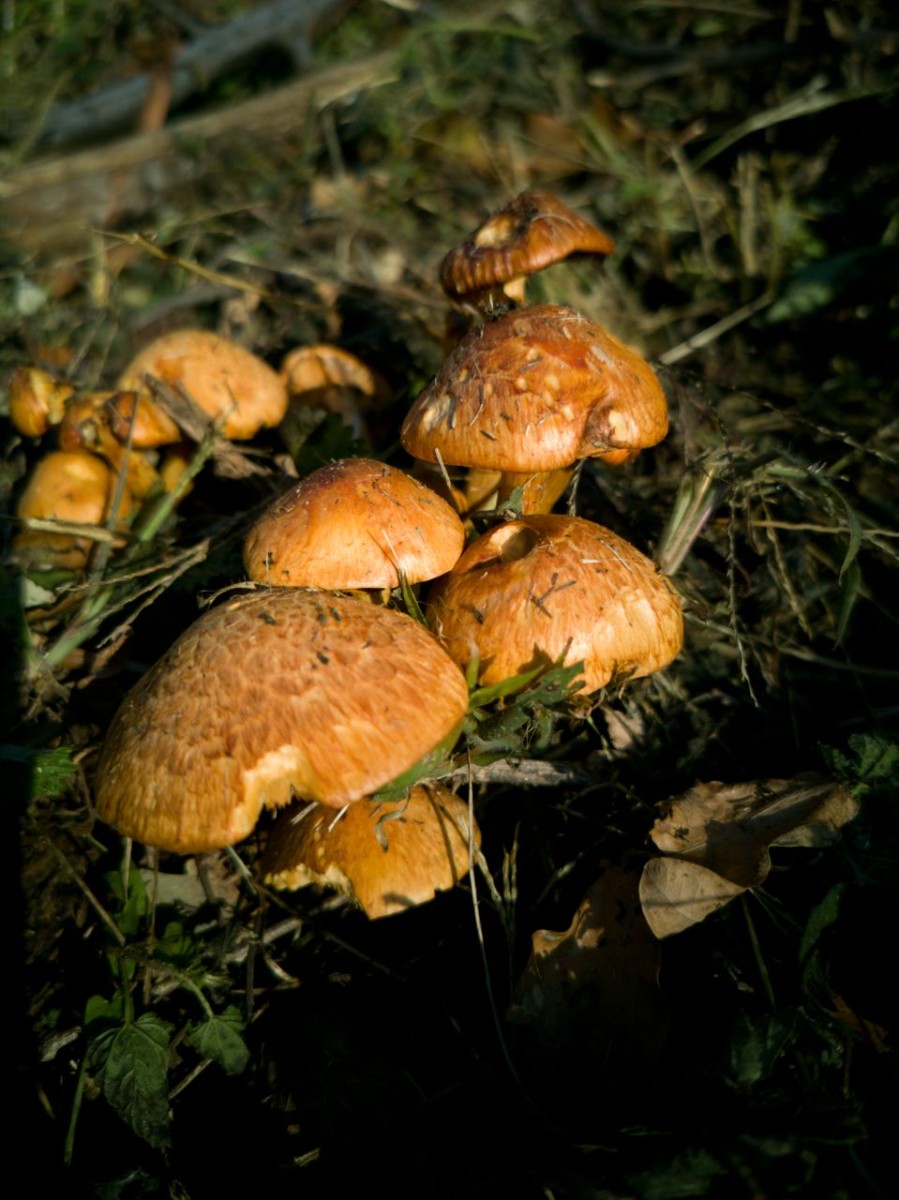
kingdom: Fungi
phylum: Basidiomycota
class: Agaricomycetes
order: Agaricales
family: Hymenogastraceae
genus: Gymnopilus
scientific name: Gymnopilus
